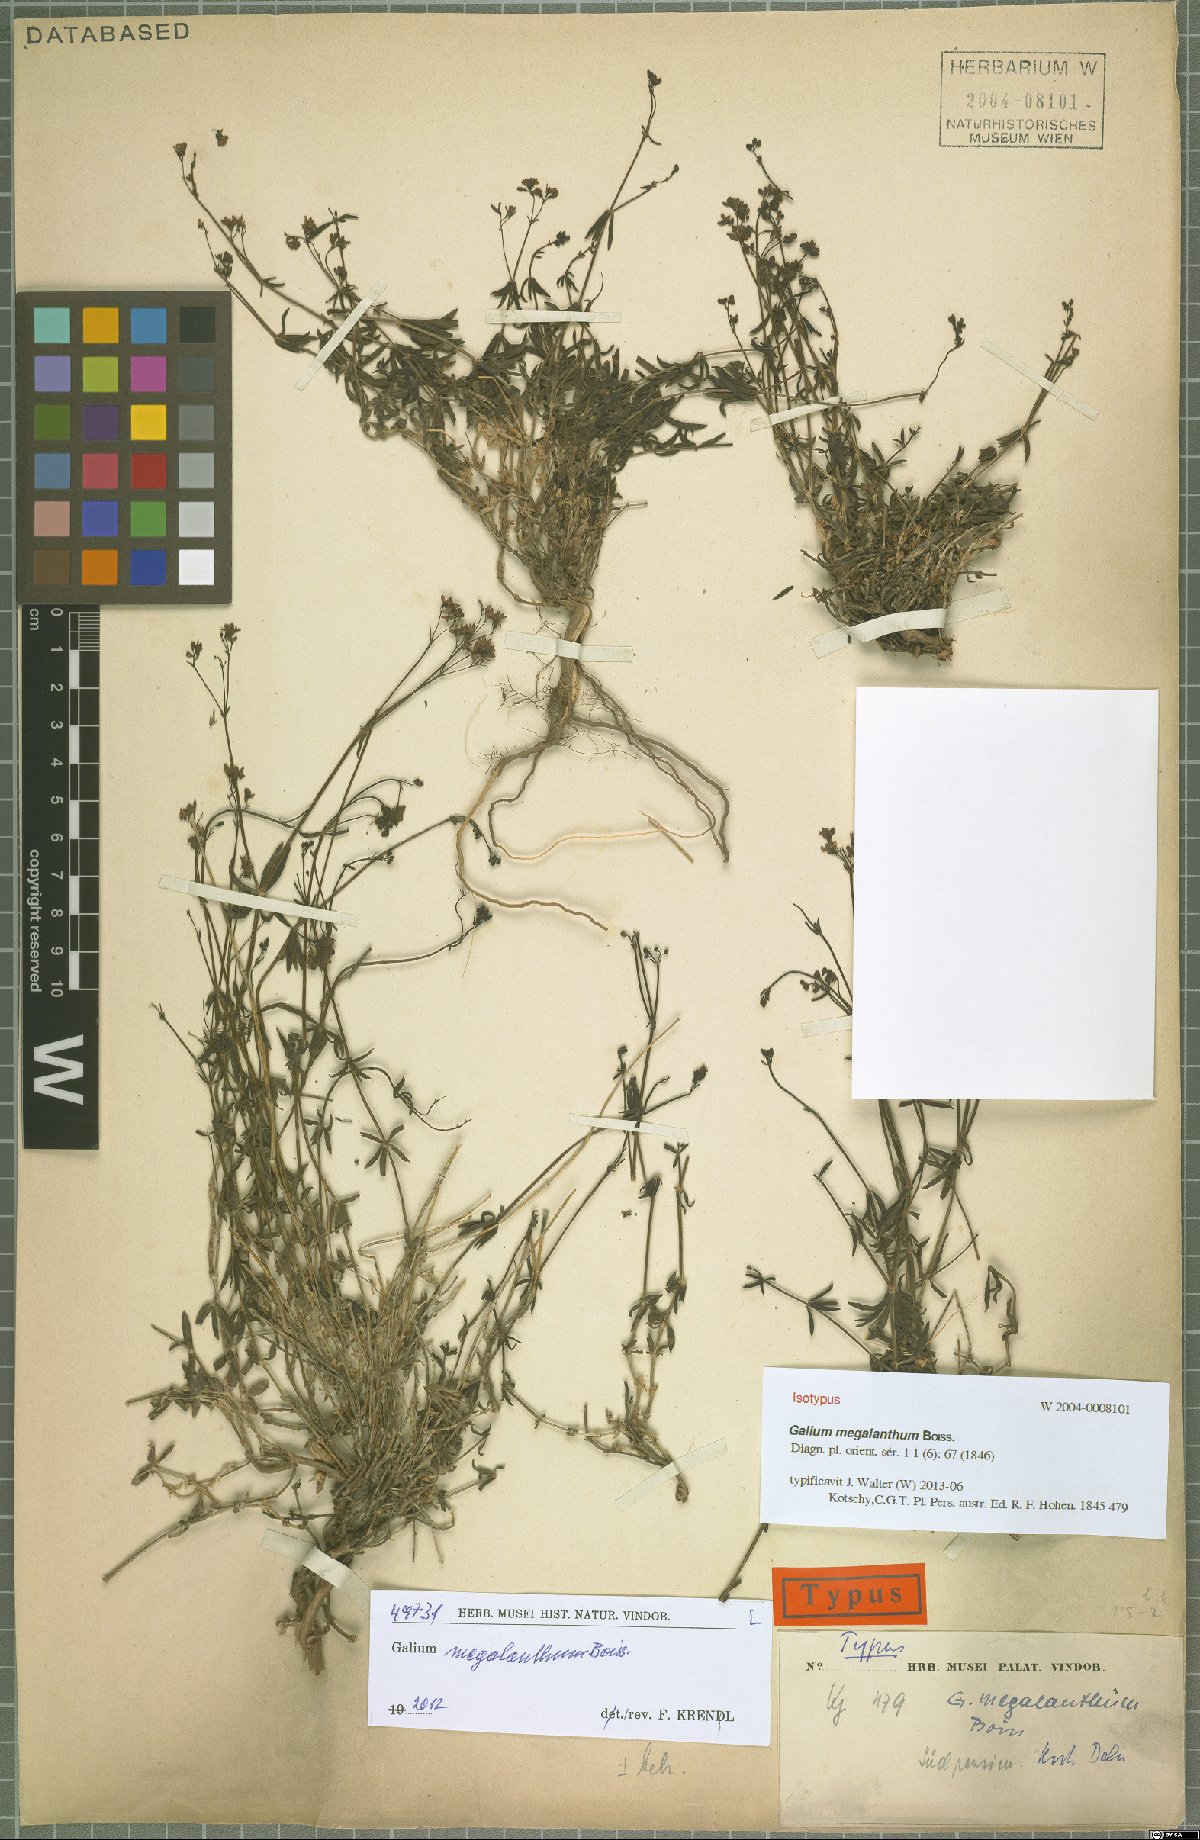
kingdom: Plantae
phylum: Tracheophyta
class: Magnoliopsida
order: Gentianales
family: Rubiaceae
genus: Galium
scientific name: Galium megalanthum
